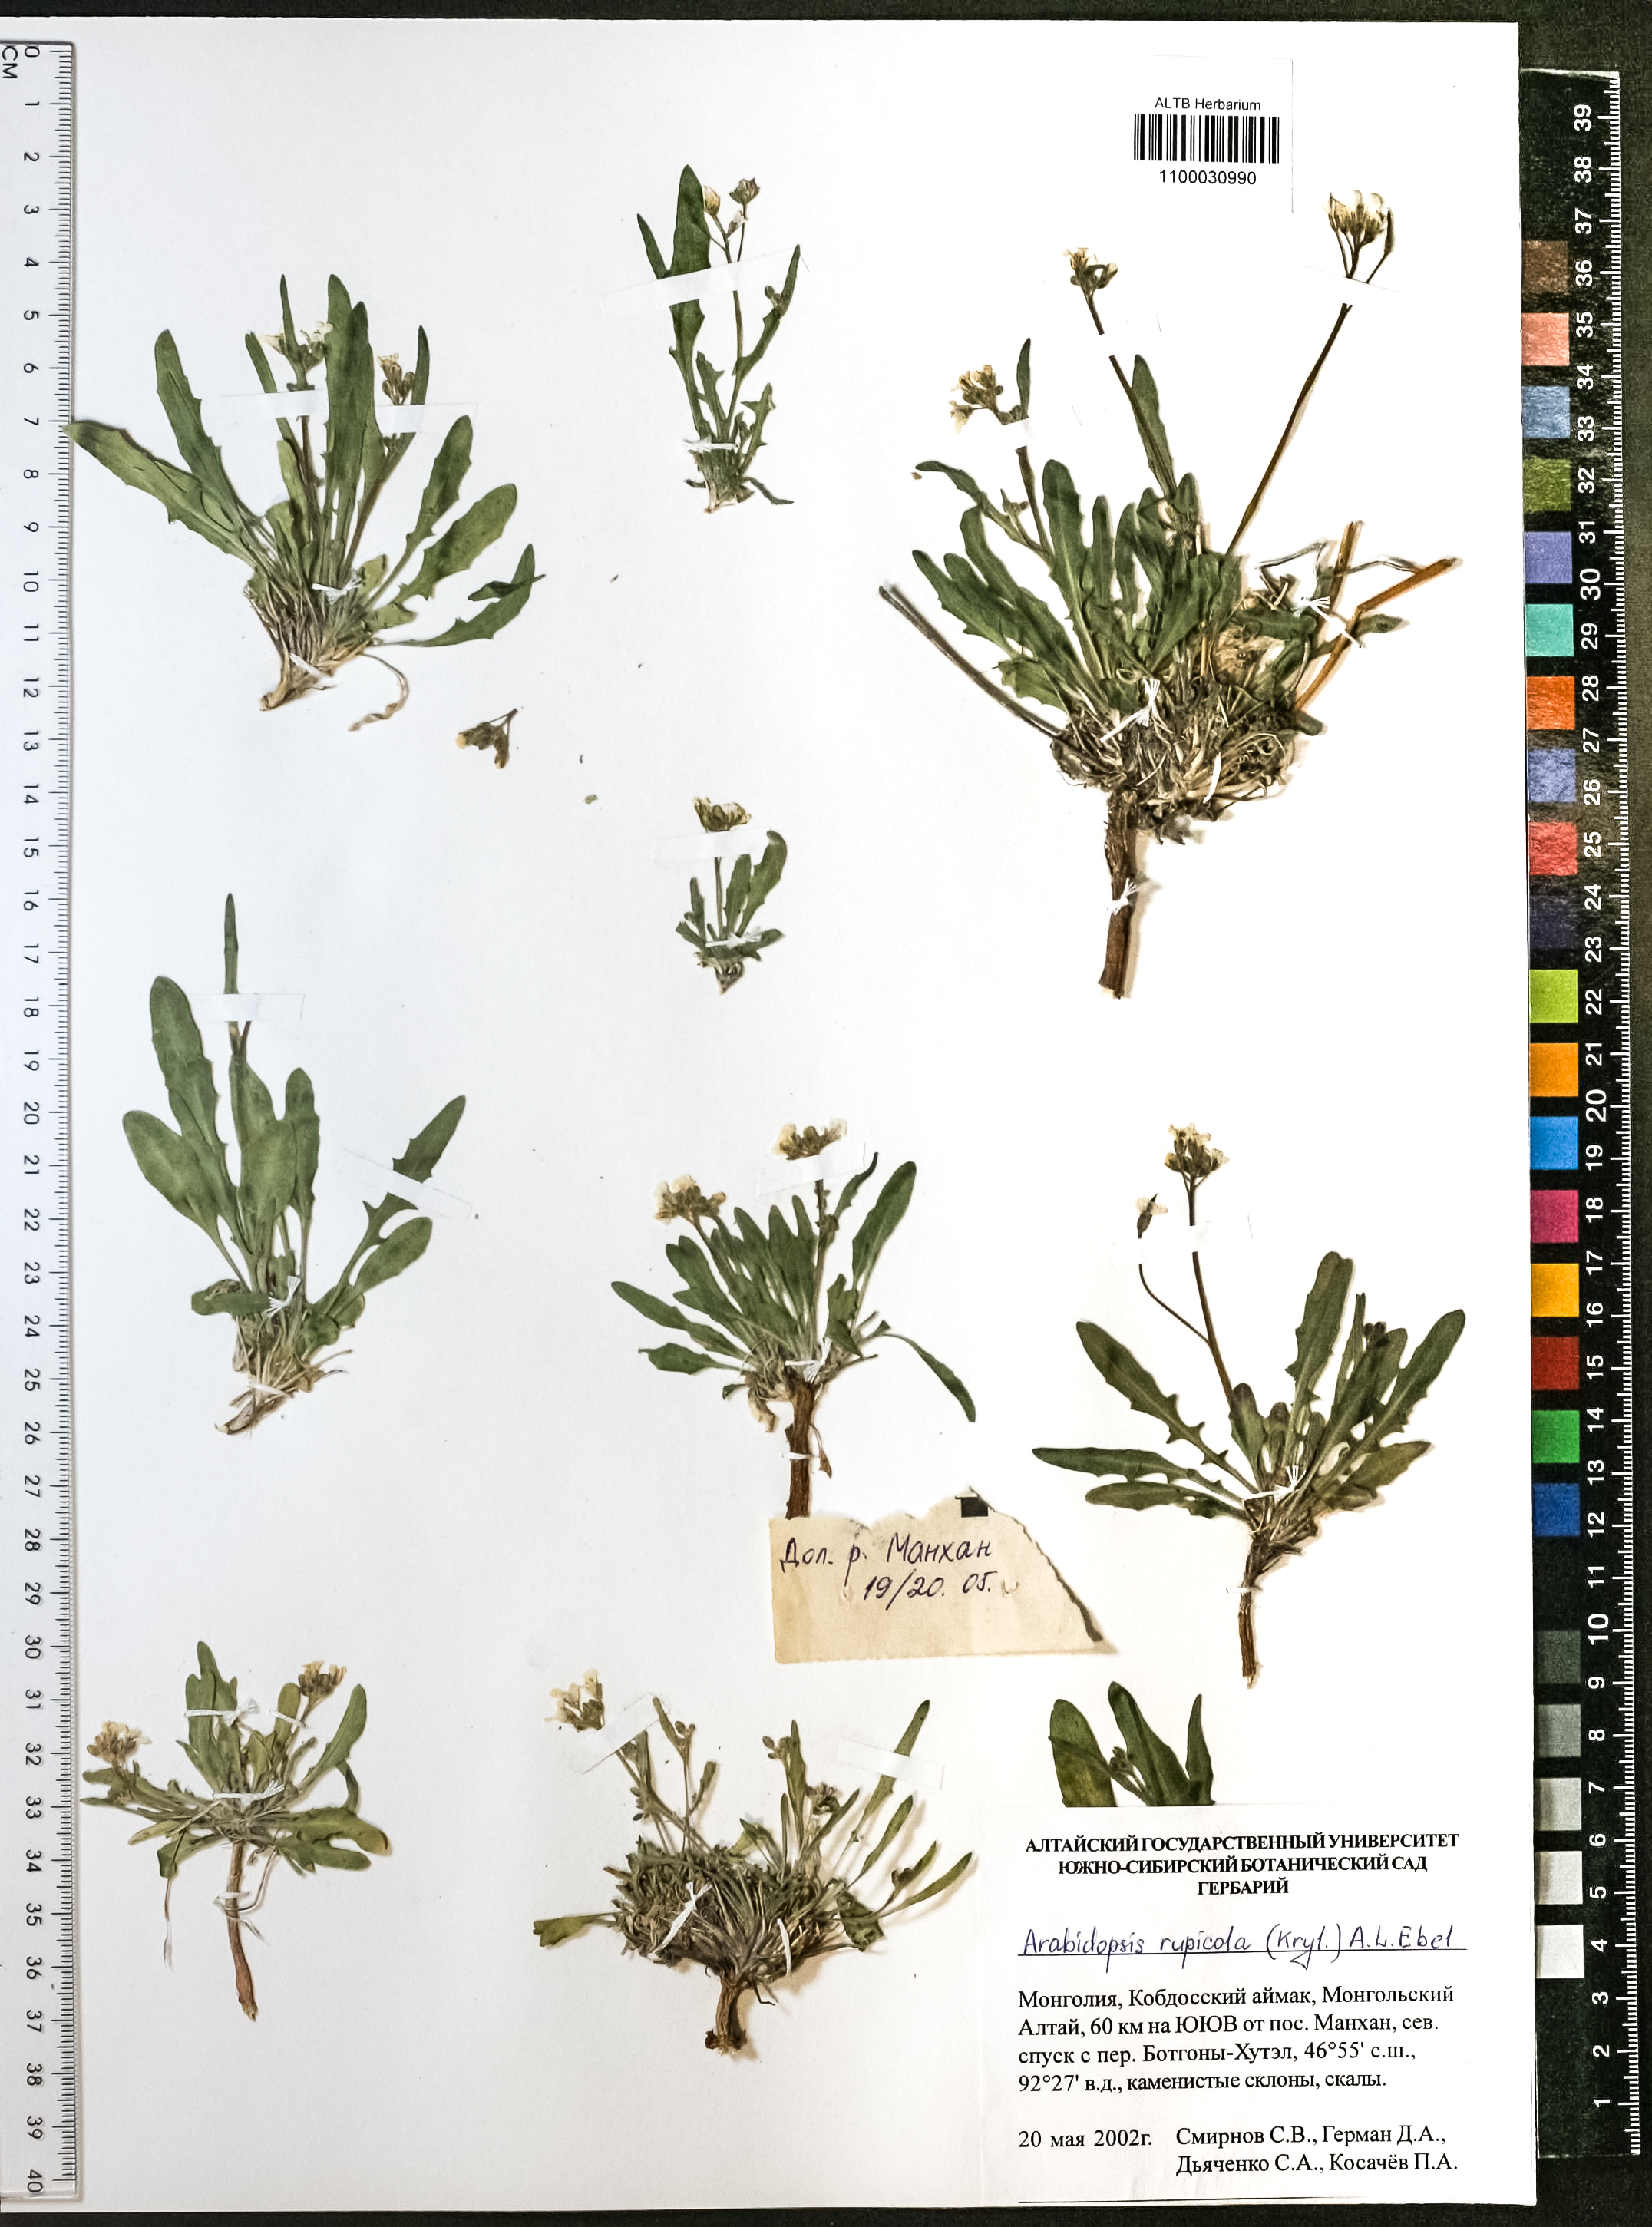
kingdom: Plantae
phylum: Tracheophyta
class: Magnoliopsida
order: Brassicales
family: Brassicaceae
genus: Crucihimalaya
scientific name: Crucihimalaya rupicola
